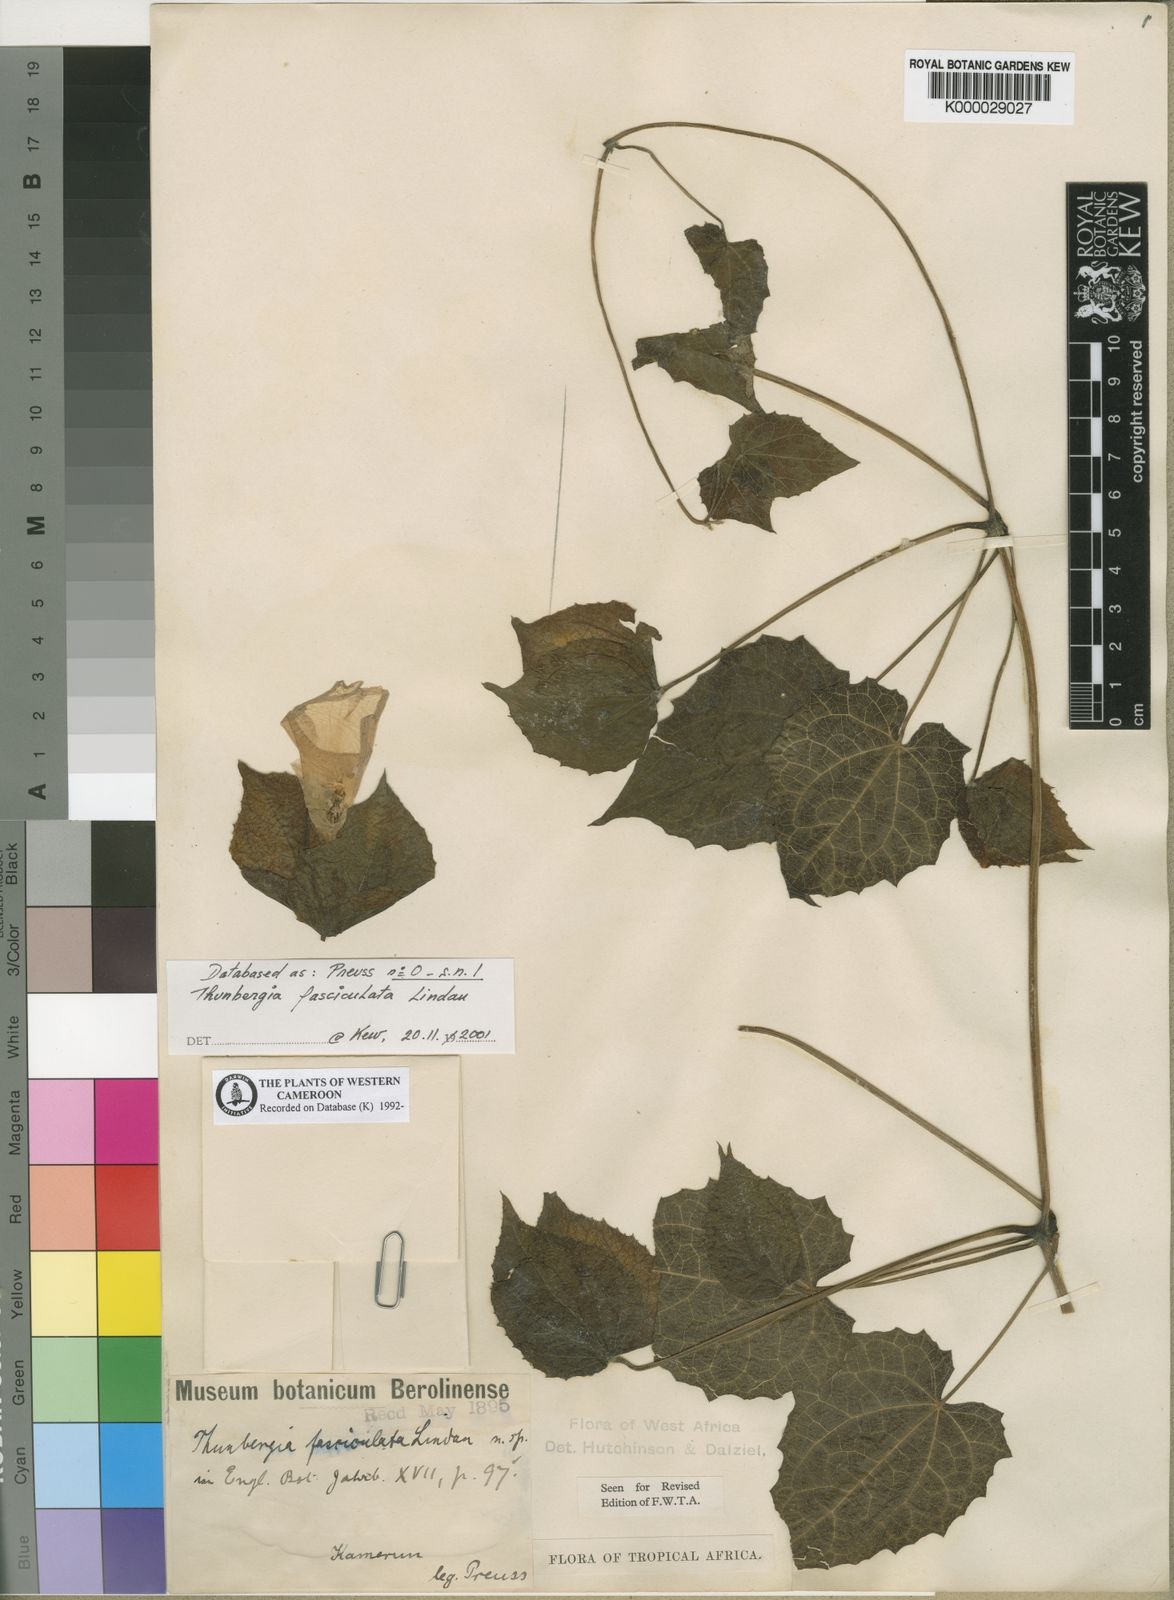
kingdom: Plantae
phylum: Tracheophyta
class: Magnoliopsida
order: Lamiales
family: Acanthaceae
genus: Thunbergia
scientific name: Thunbergia fasciculata
